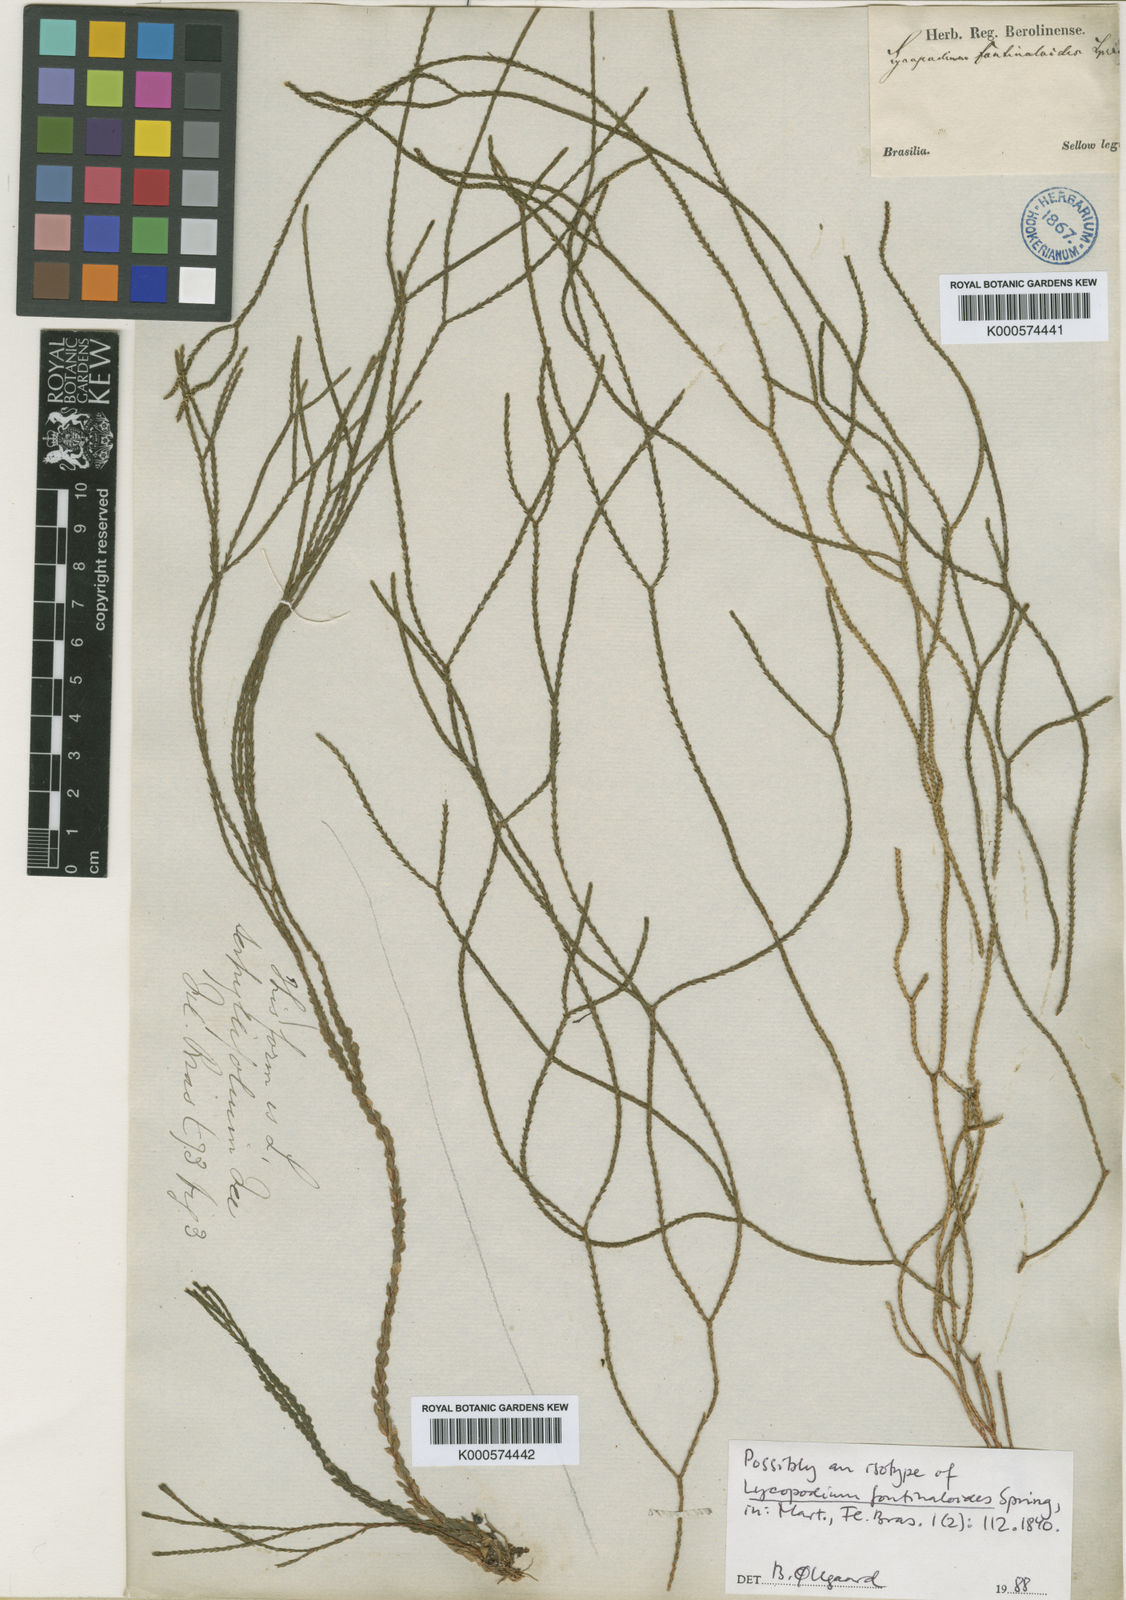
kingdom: Plantae
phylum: Tracheophyta
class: Lycopodiopsida
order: Lycopodiales
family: Lycopodiaceae
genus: Phlegmariurus
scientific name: Phlegmariurus fontinaloides
